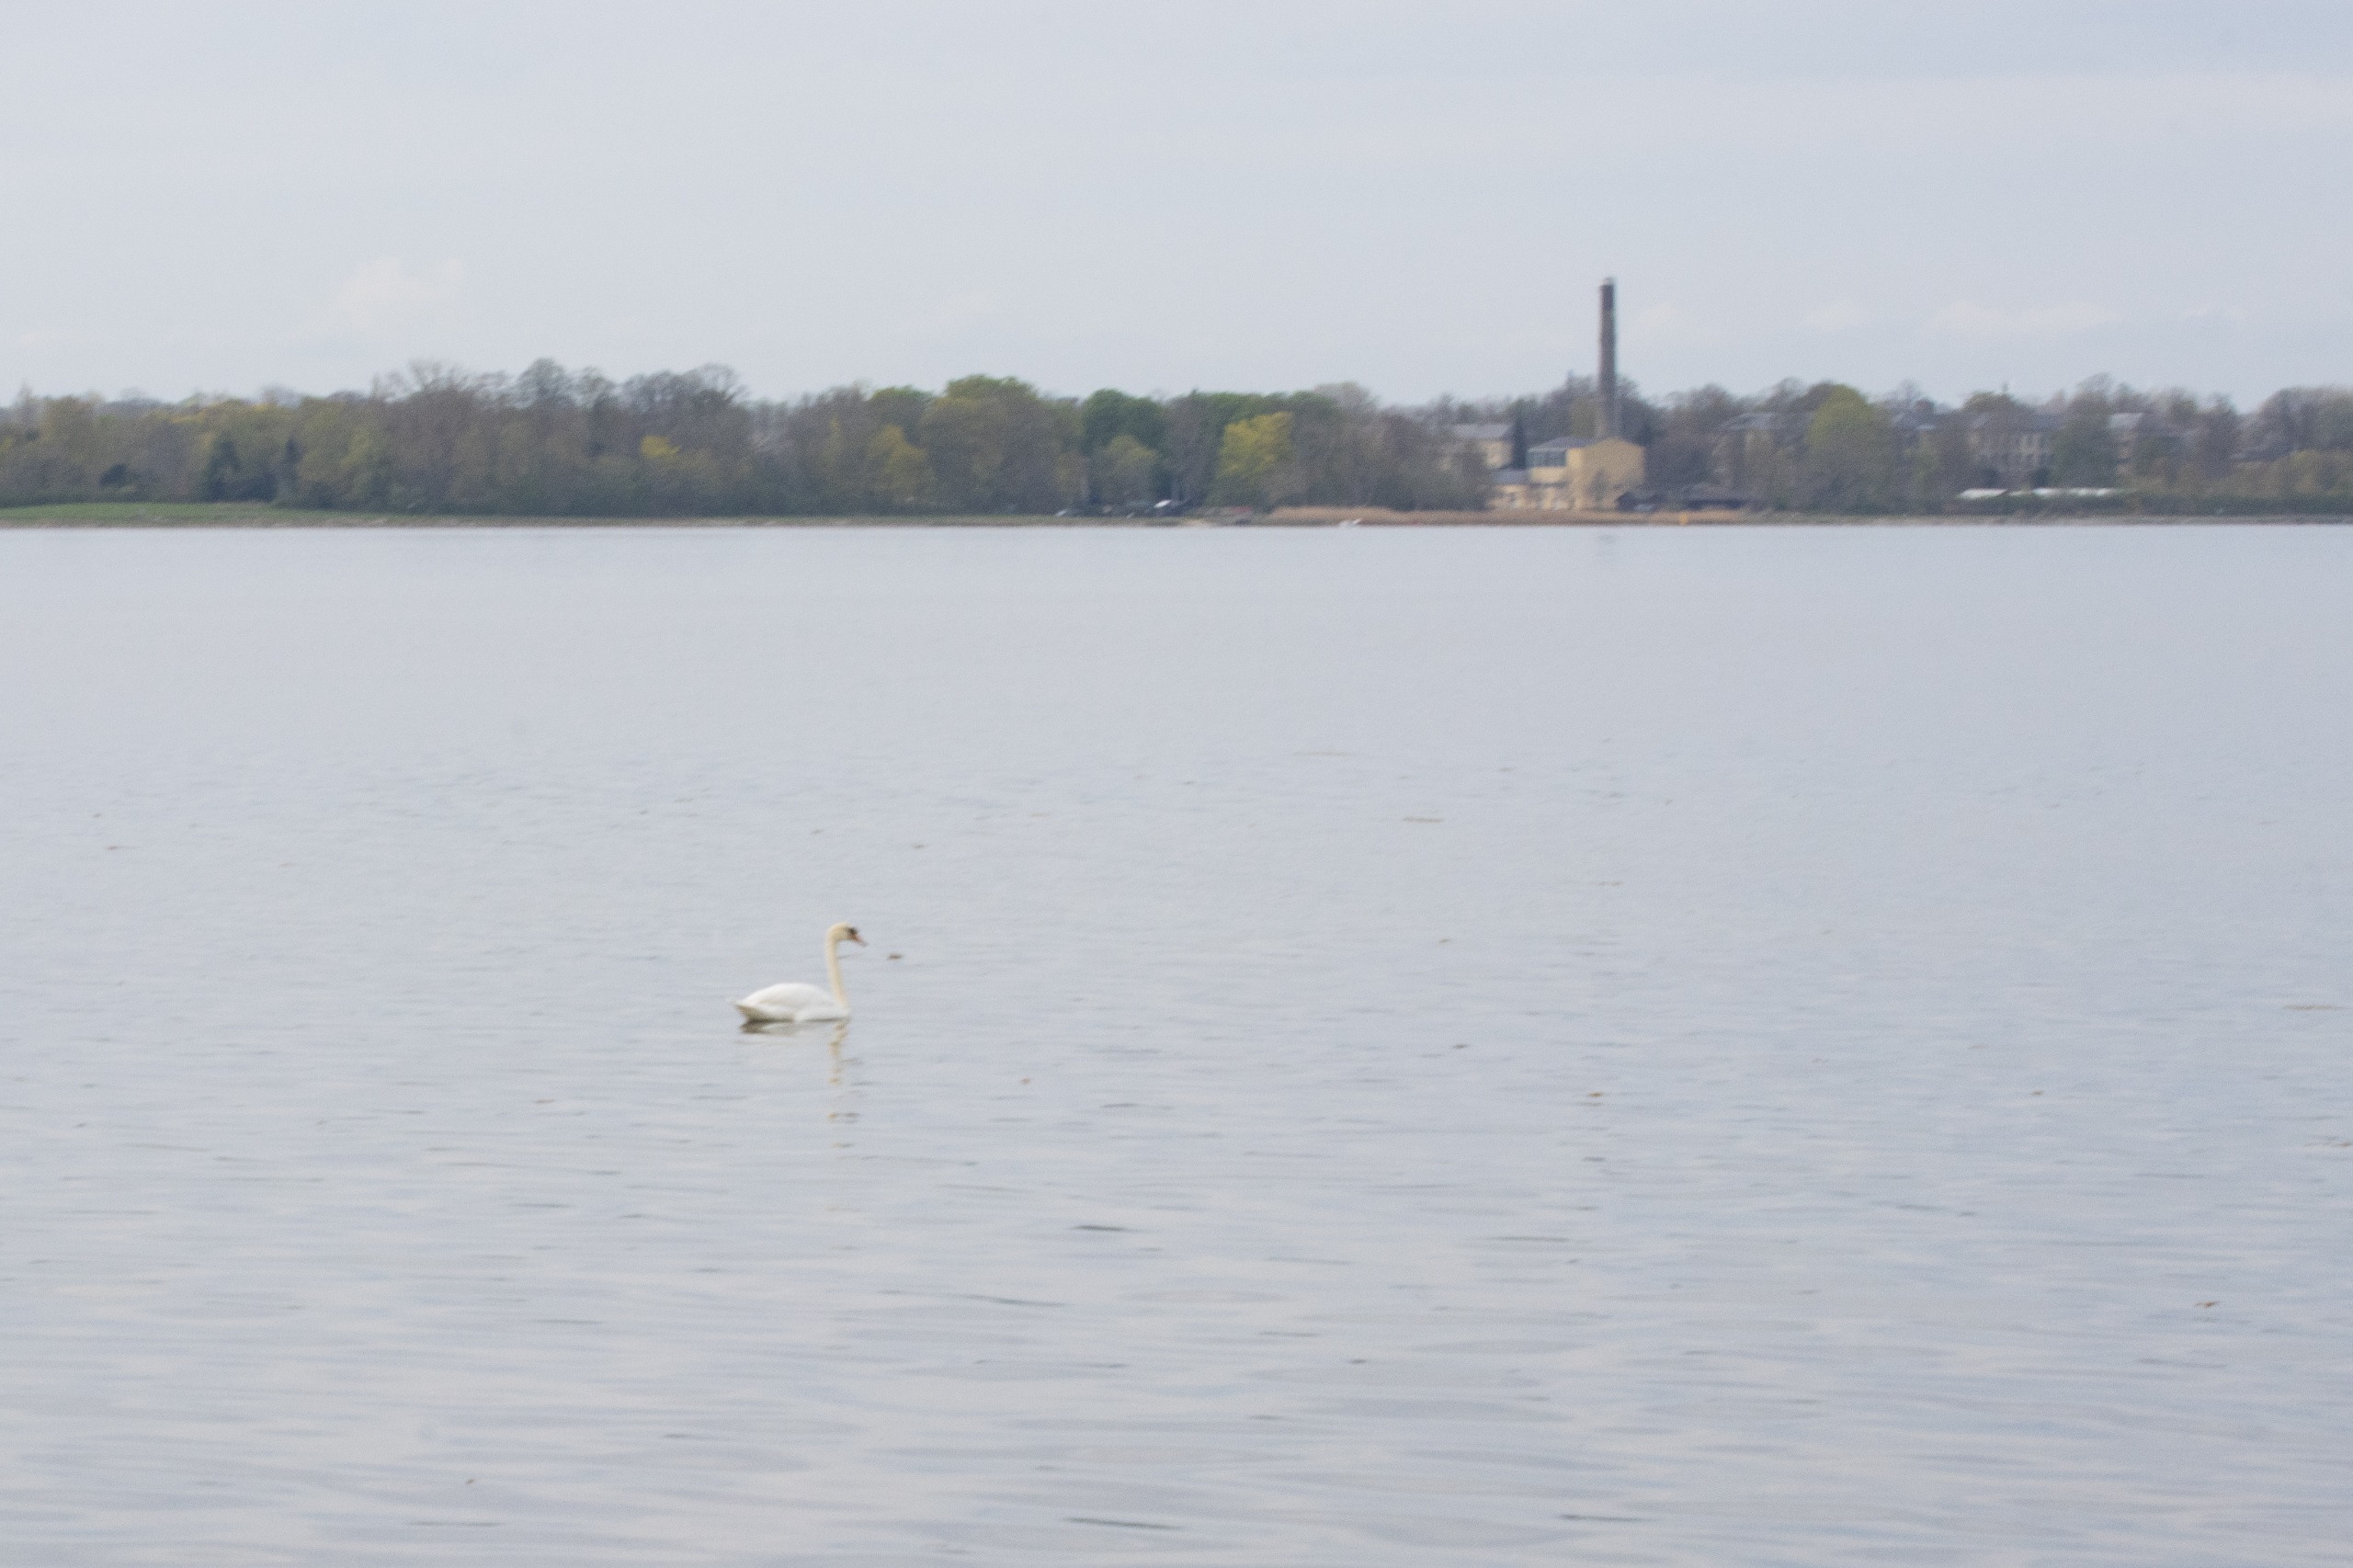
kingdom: Animalia
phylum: Chordata
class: Aves
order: Anseriformes
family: Anatidae
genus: Cygnus
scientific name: Cygnus olor
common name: Knopsvane
